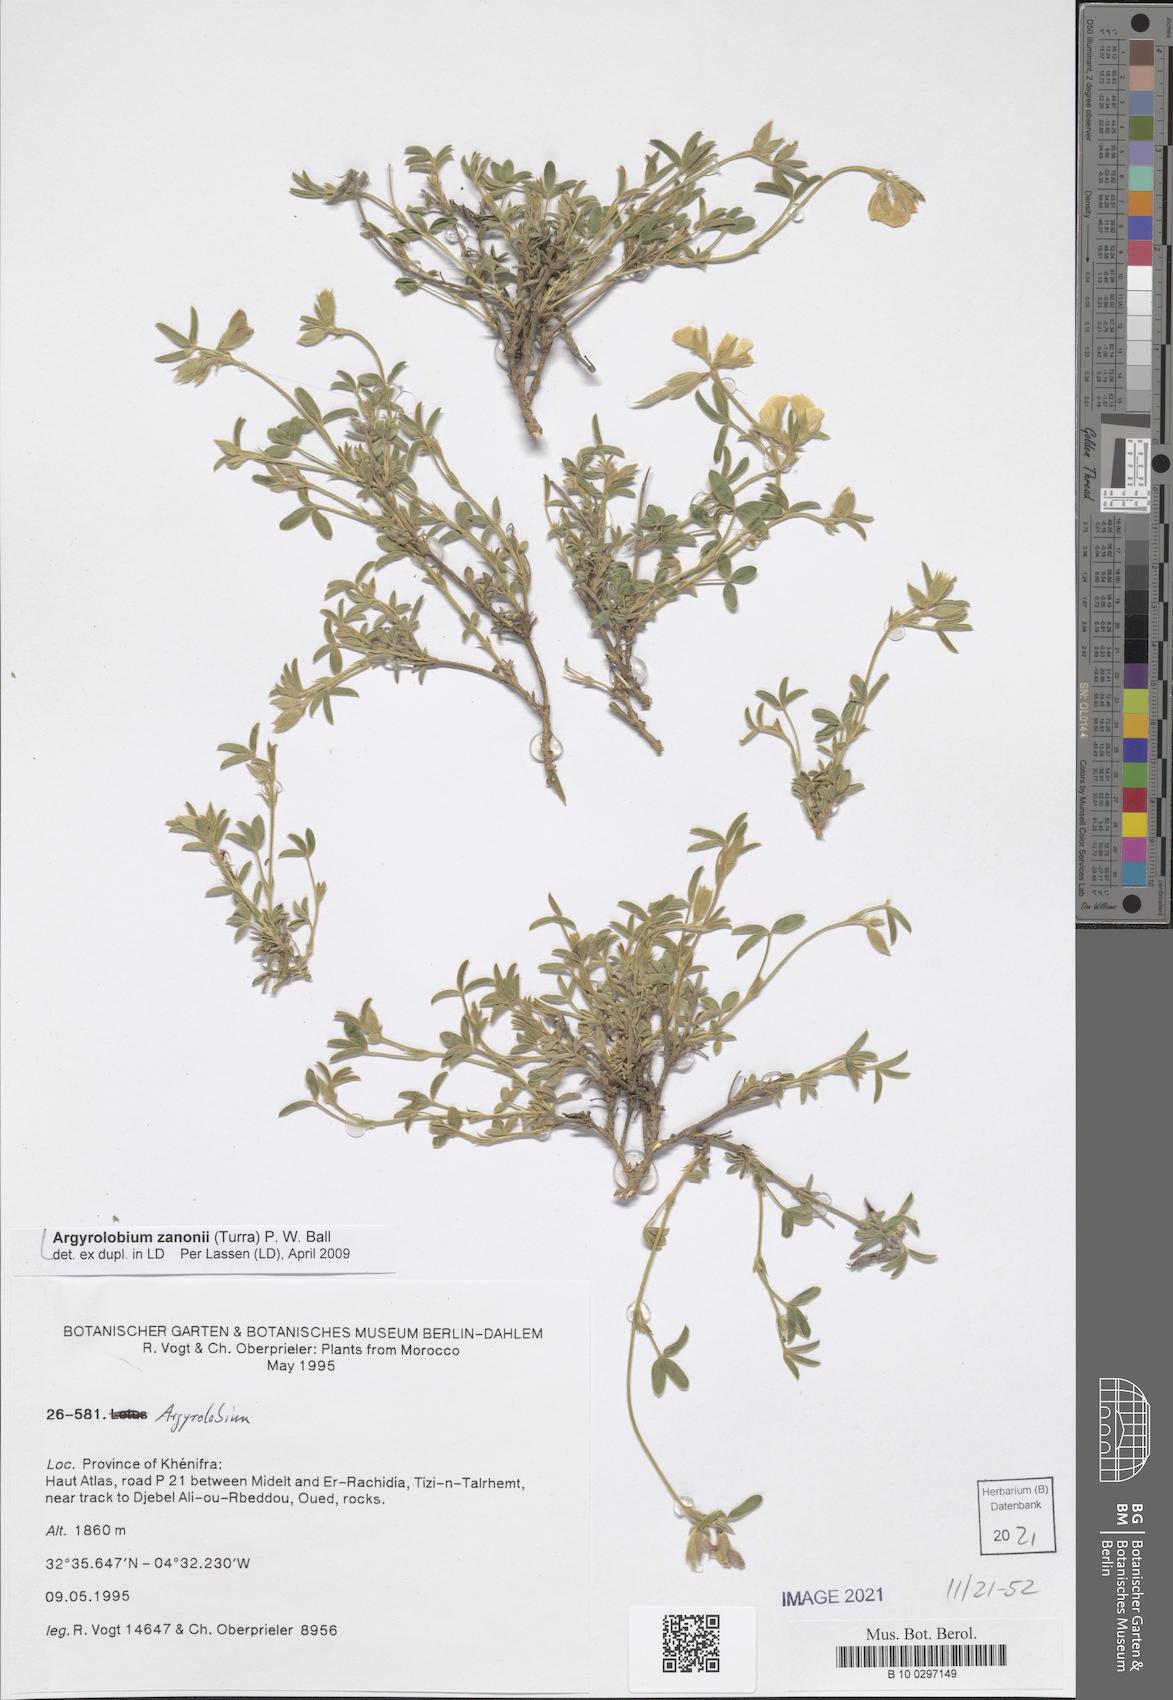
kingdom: Plantae
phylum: Tracheophyta
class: Magnoliopsida
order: Fabales
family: Fabaceae
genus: Argyrolobium
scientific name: Argyrolobium zanonii
